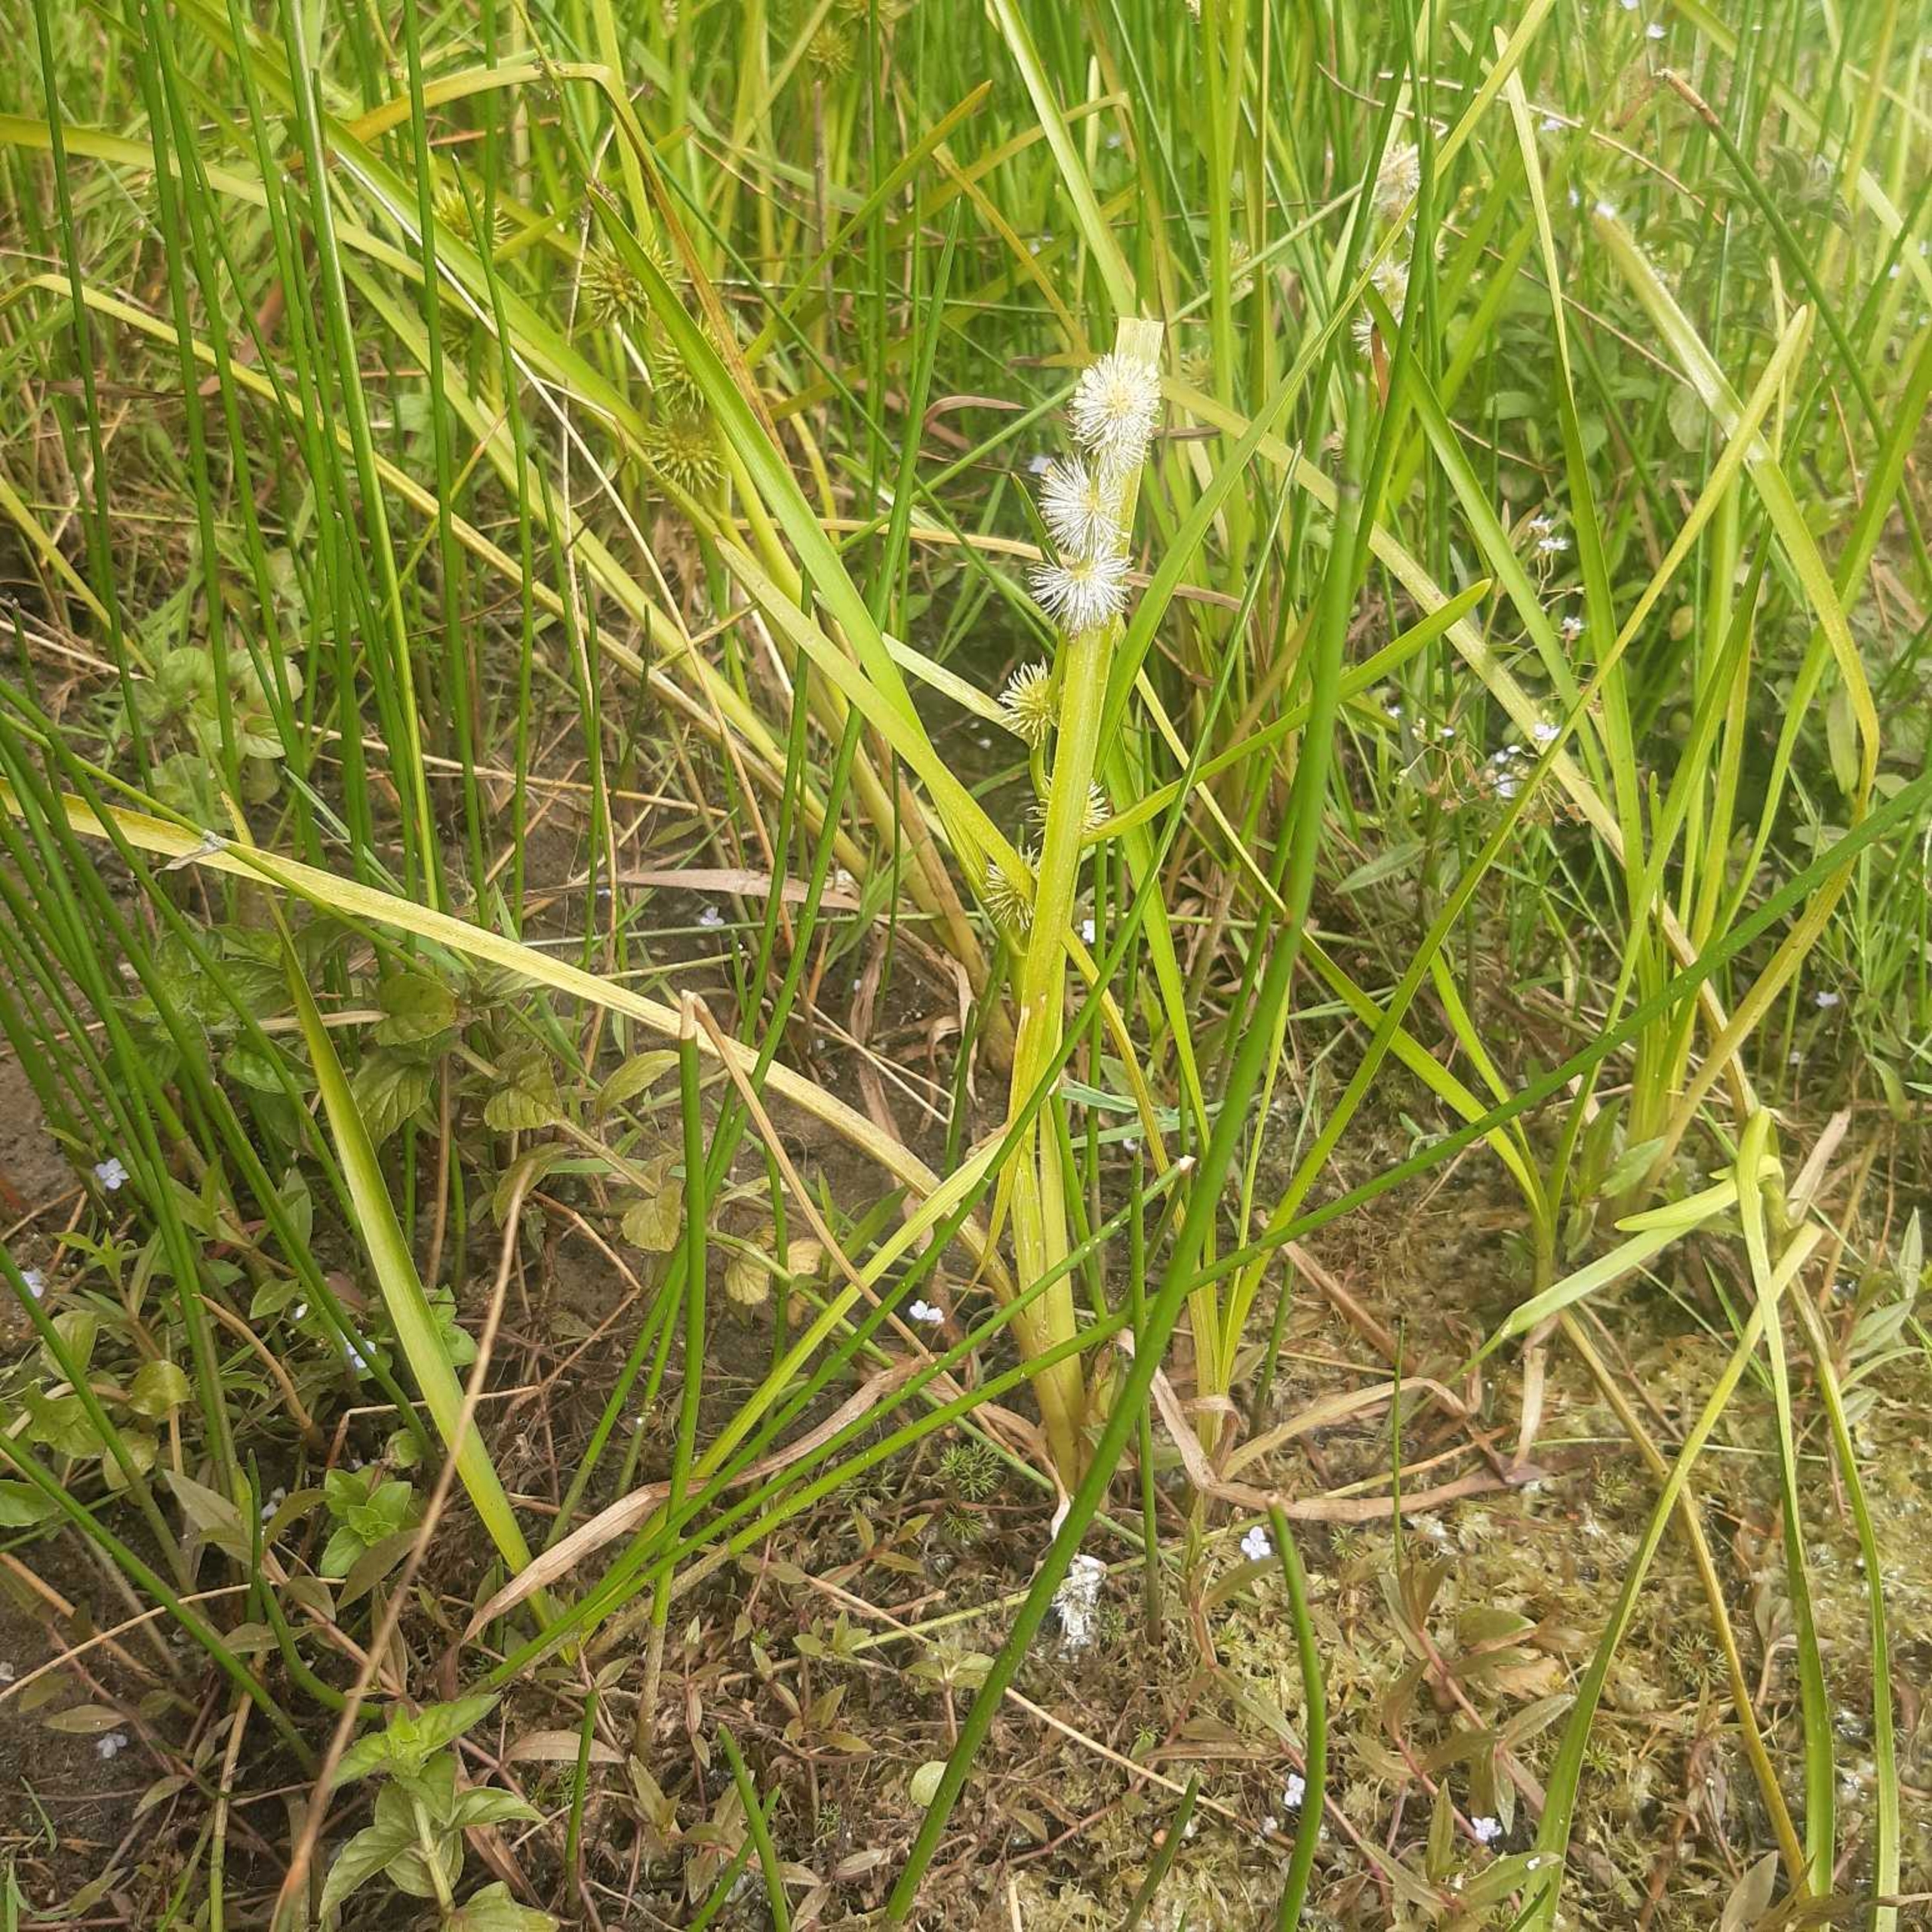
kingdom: Plantae
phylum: Tracheophyta
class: Liliopsida
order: Poales
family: Typhaceae
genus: Sparganium
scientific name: Sparganium emersum
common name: Enkelt pindsvineknop
